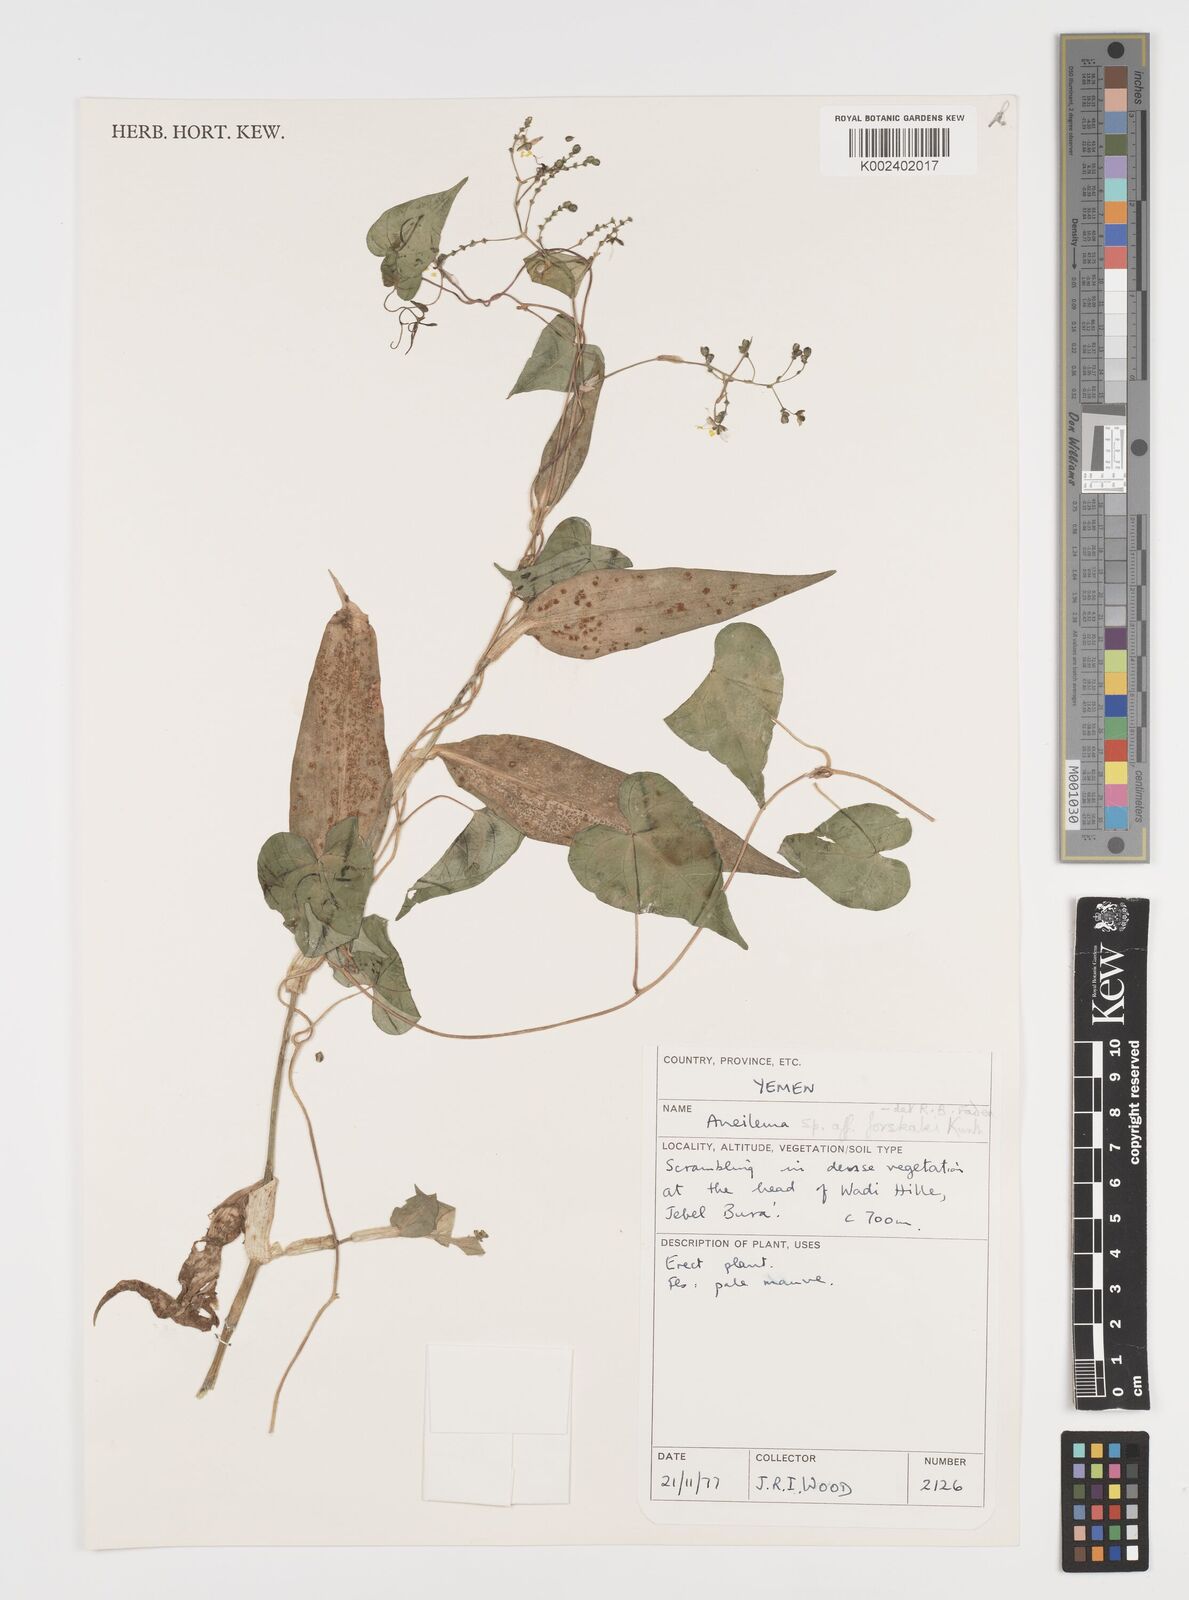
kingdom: Plantae
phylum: Tracheophyta
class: Liliopsida
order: Commelinales
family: Commelinaceae
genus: Aneilema
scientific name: Aneilema forskalii
